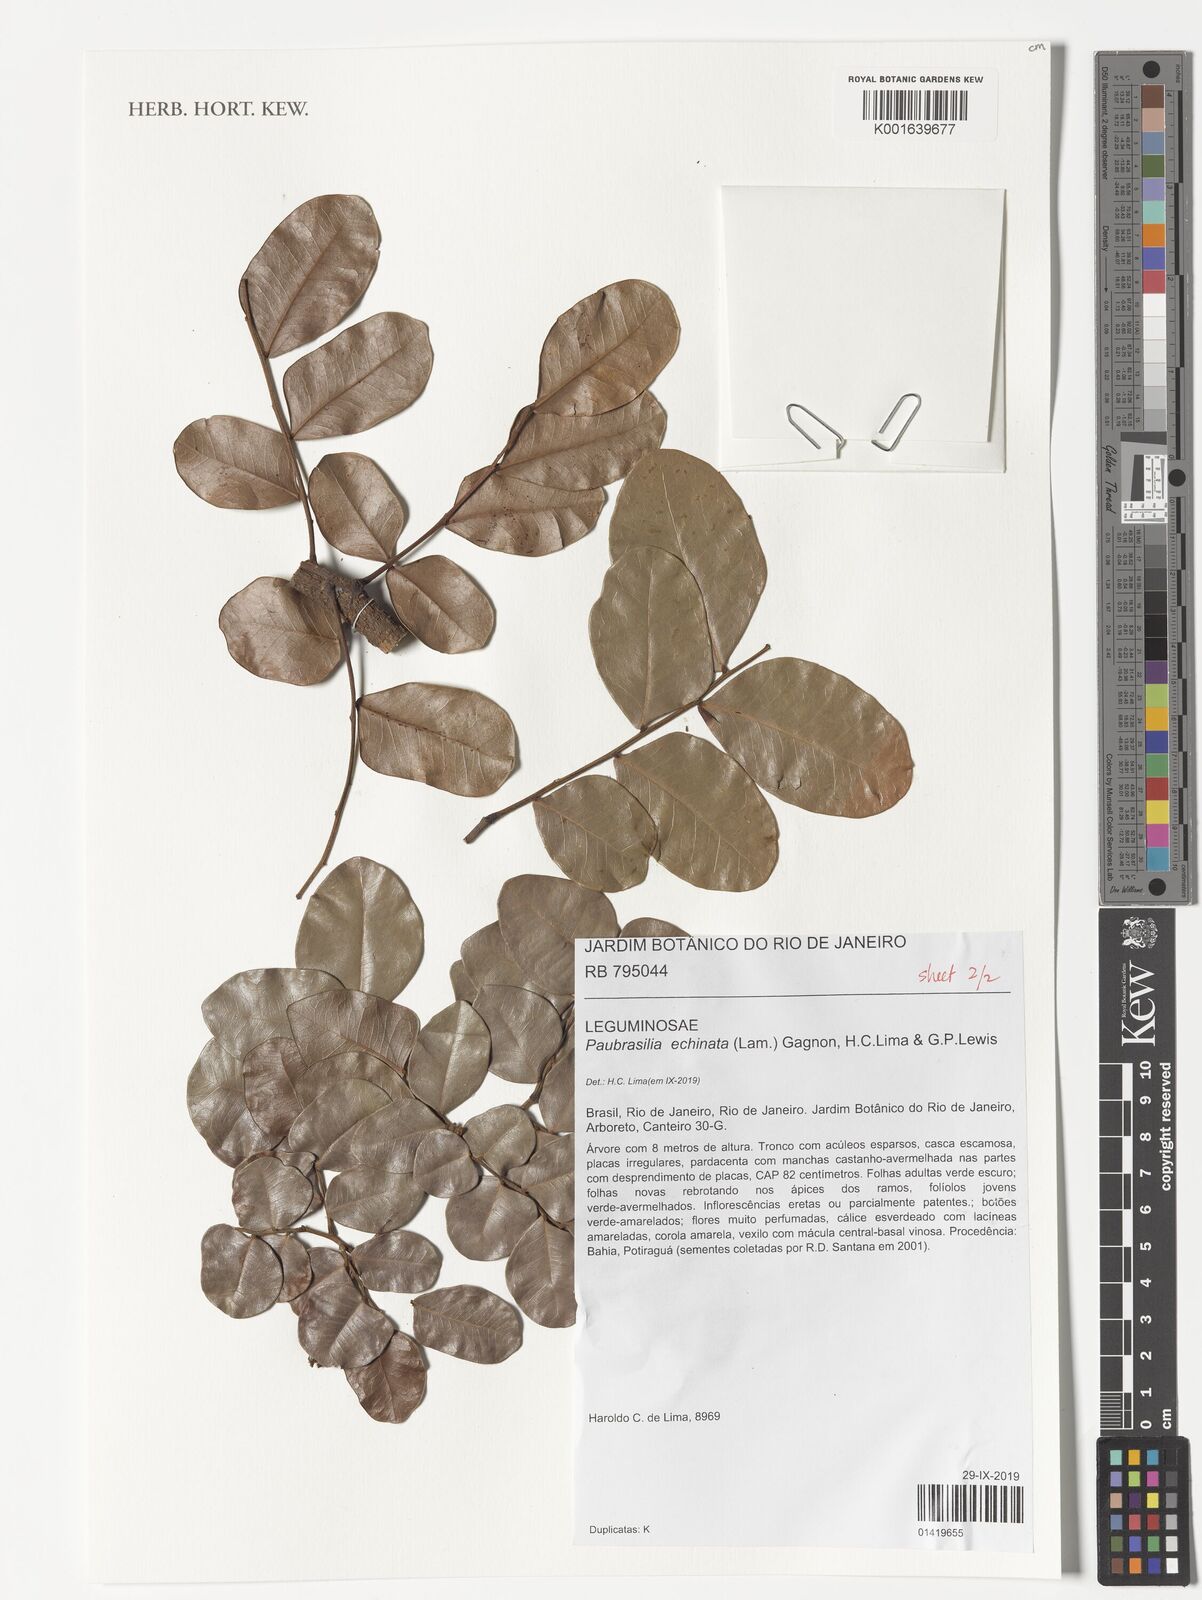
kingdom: Plantae
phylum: Tracheophyta
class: Magnoliopsida
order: Fabales
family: Fabaceae
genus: Paubrasilia
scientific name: Paubrasilia echinata
